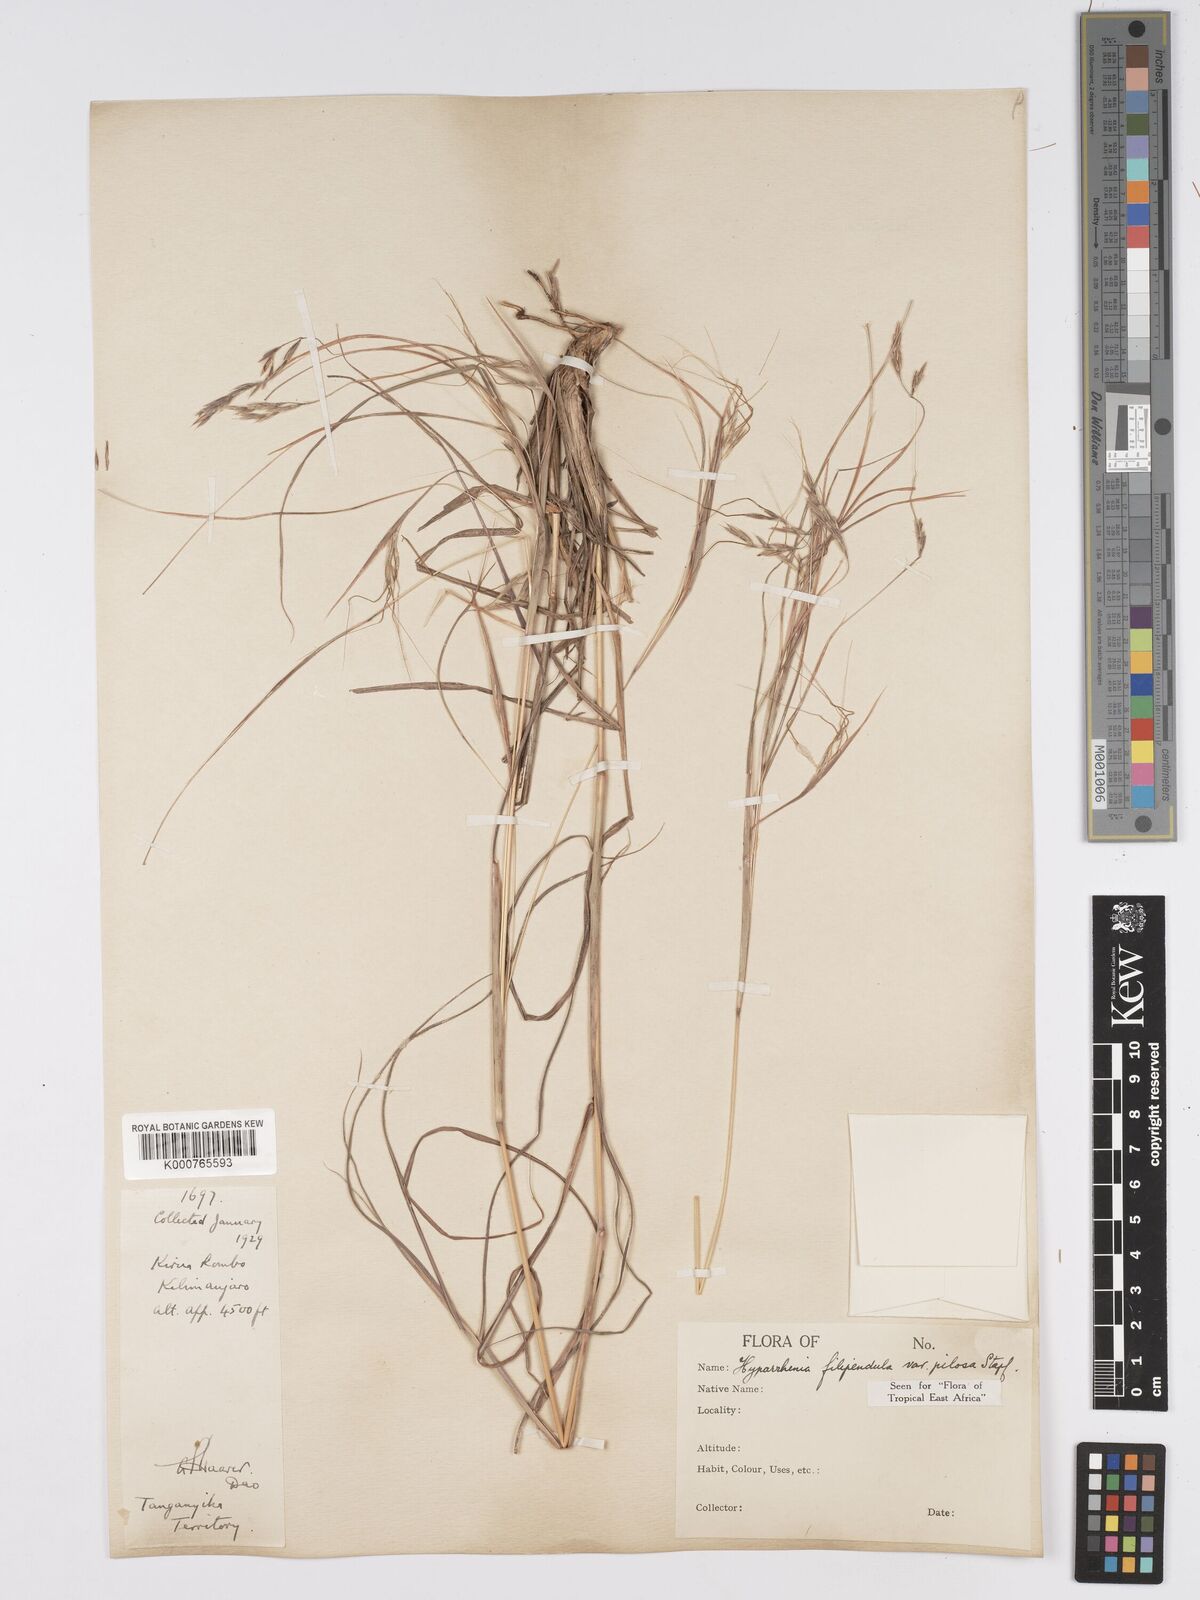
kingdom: Plantae
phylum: Tracheophyta
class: Liliopsida
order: Poales
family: Poaceae
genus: Hyparrhenia
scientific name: Hyparrhenia filipendula
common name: Tambookie grass
